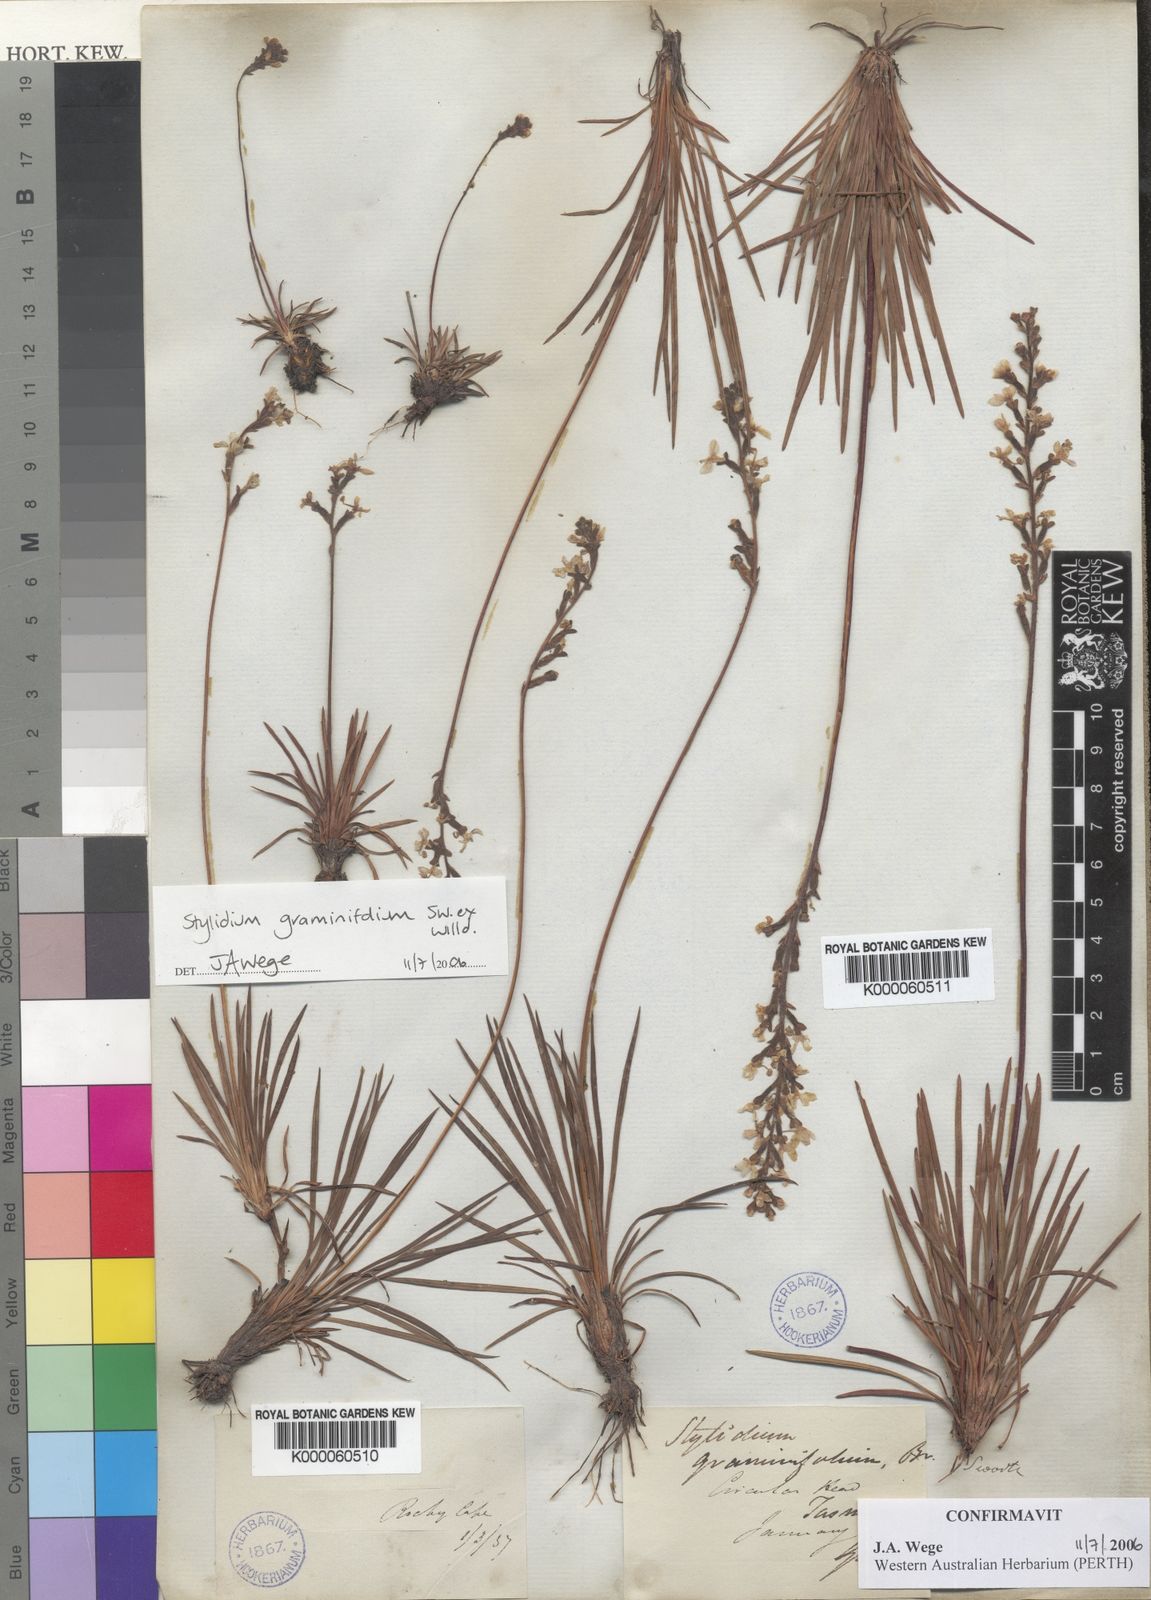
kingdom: Plantae
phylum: Tracheophyta
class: Magnoliopsida
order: Asterales
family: Stylidiaceae
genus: Stylidium
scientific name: Stylidium graminifolium
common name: Grass triggerplant
